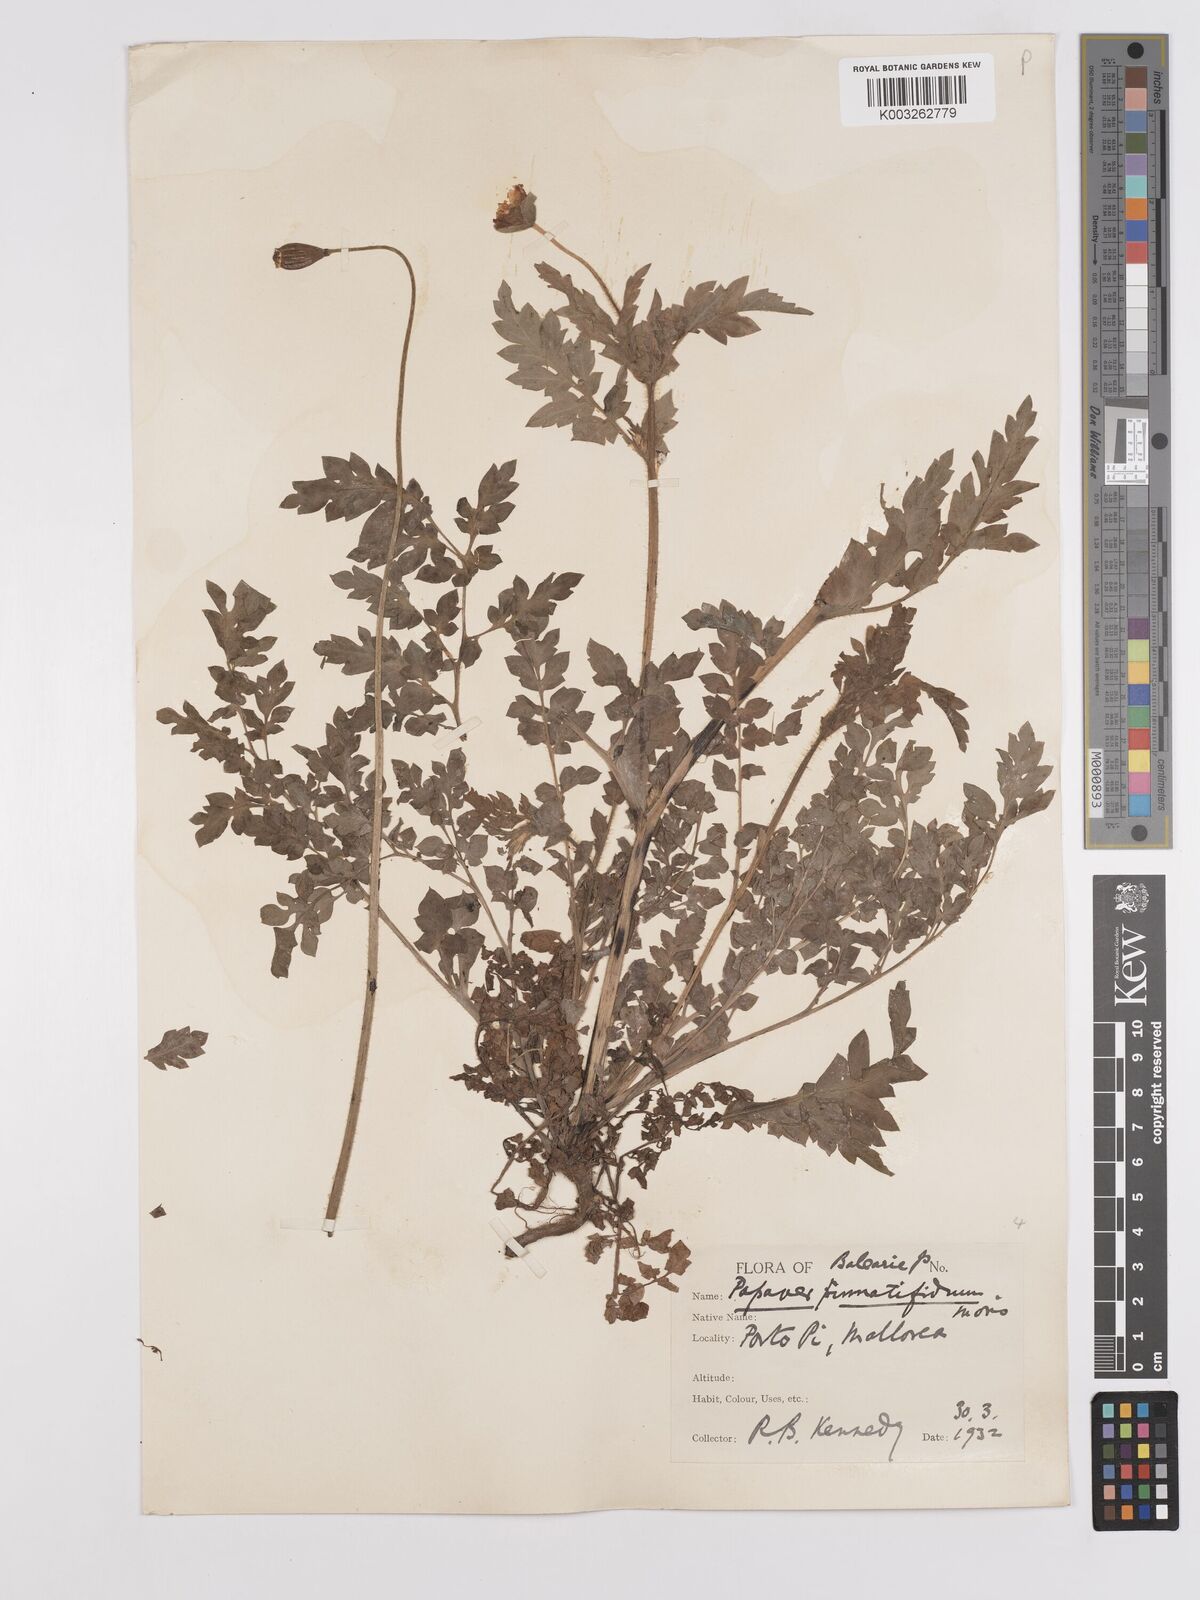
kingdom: Plantae
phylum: Tracheophyta
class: Magnoliopsida
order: Ranunculales
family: Papaveraceae
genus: Papaver
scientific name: Papaver pinnatifidum
